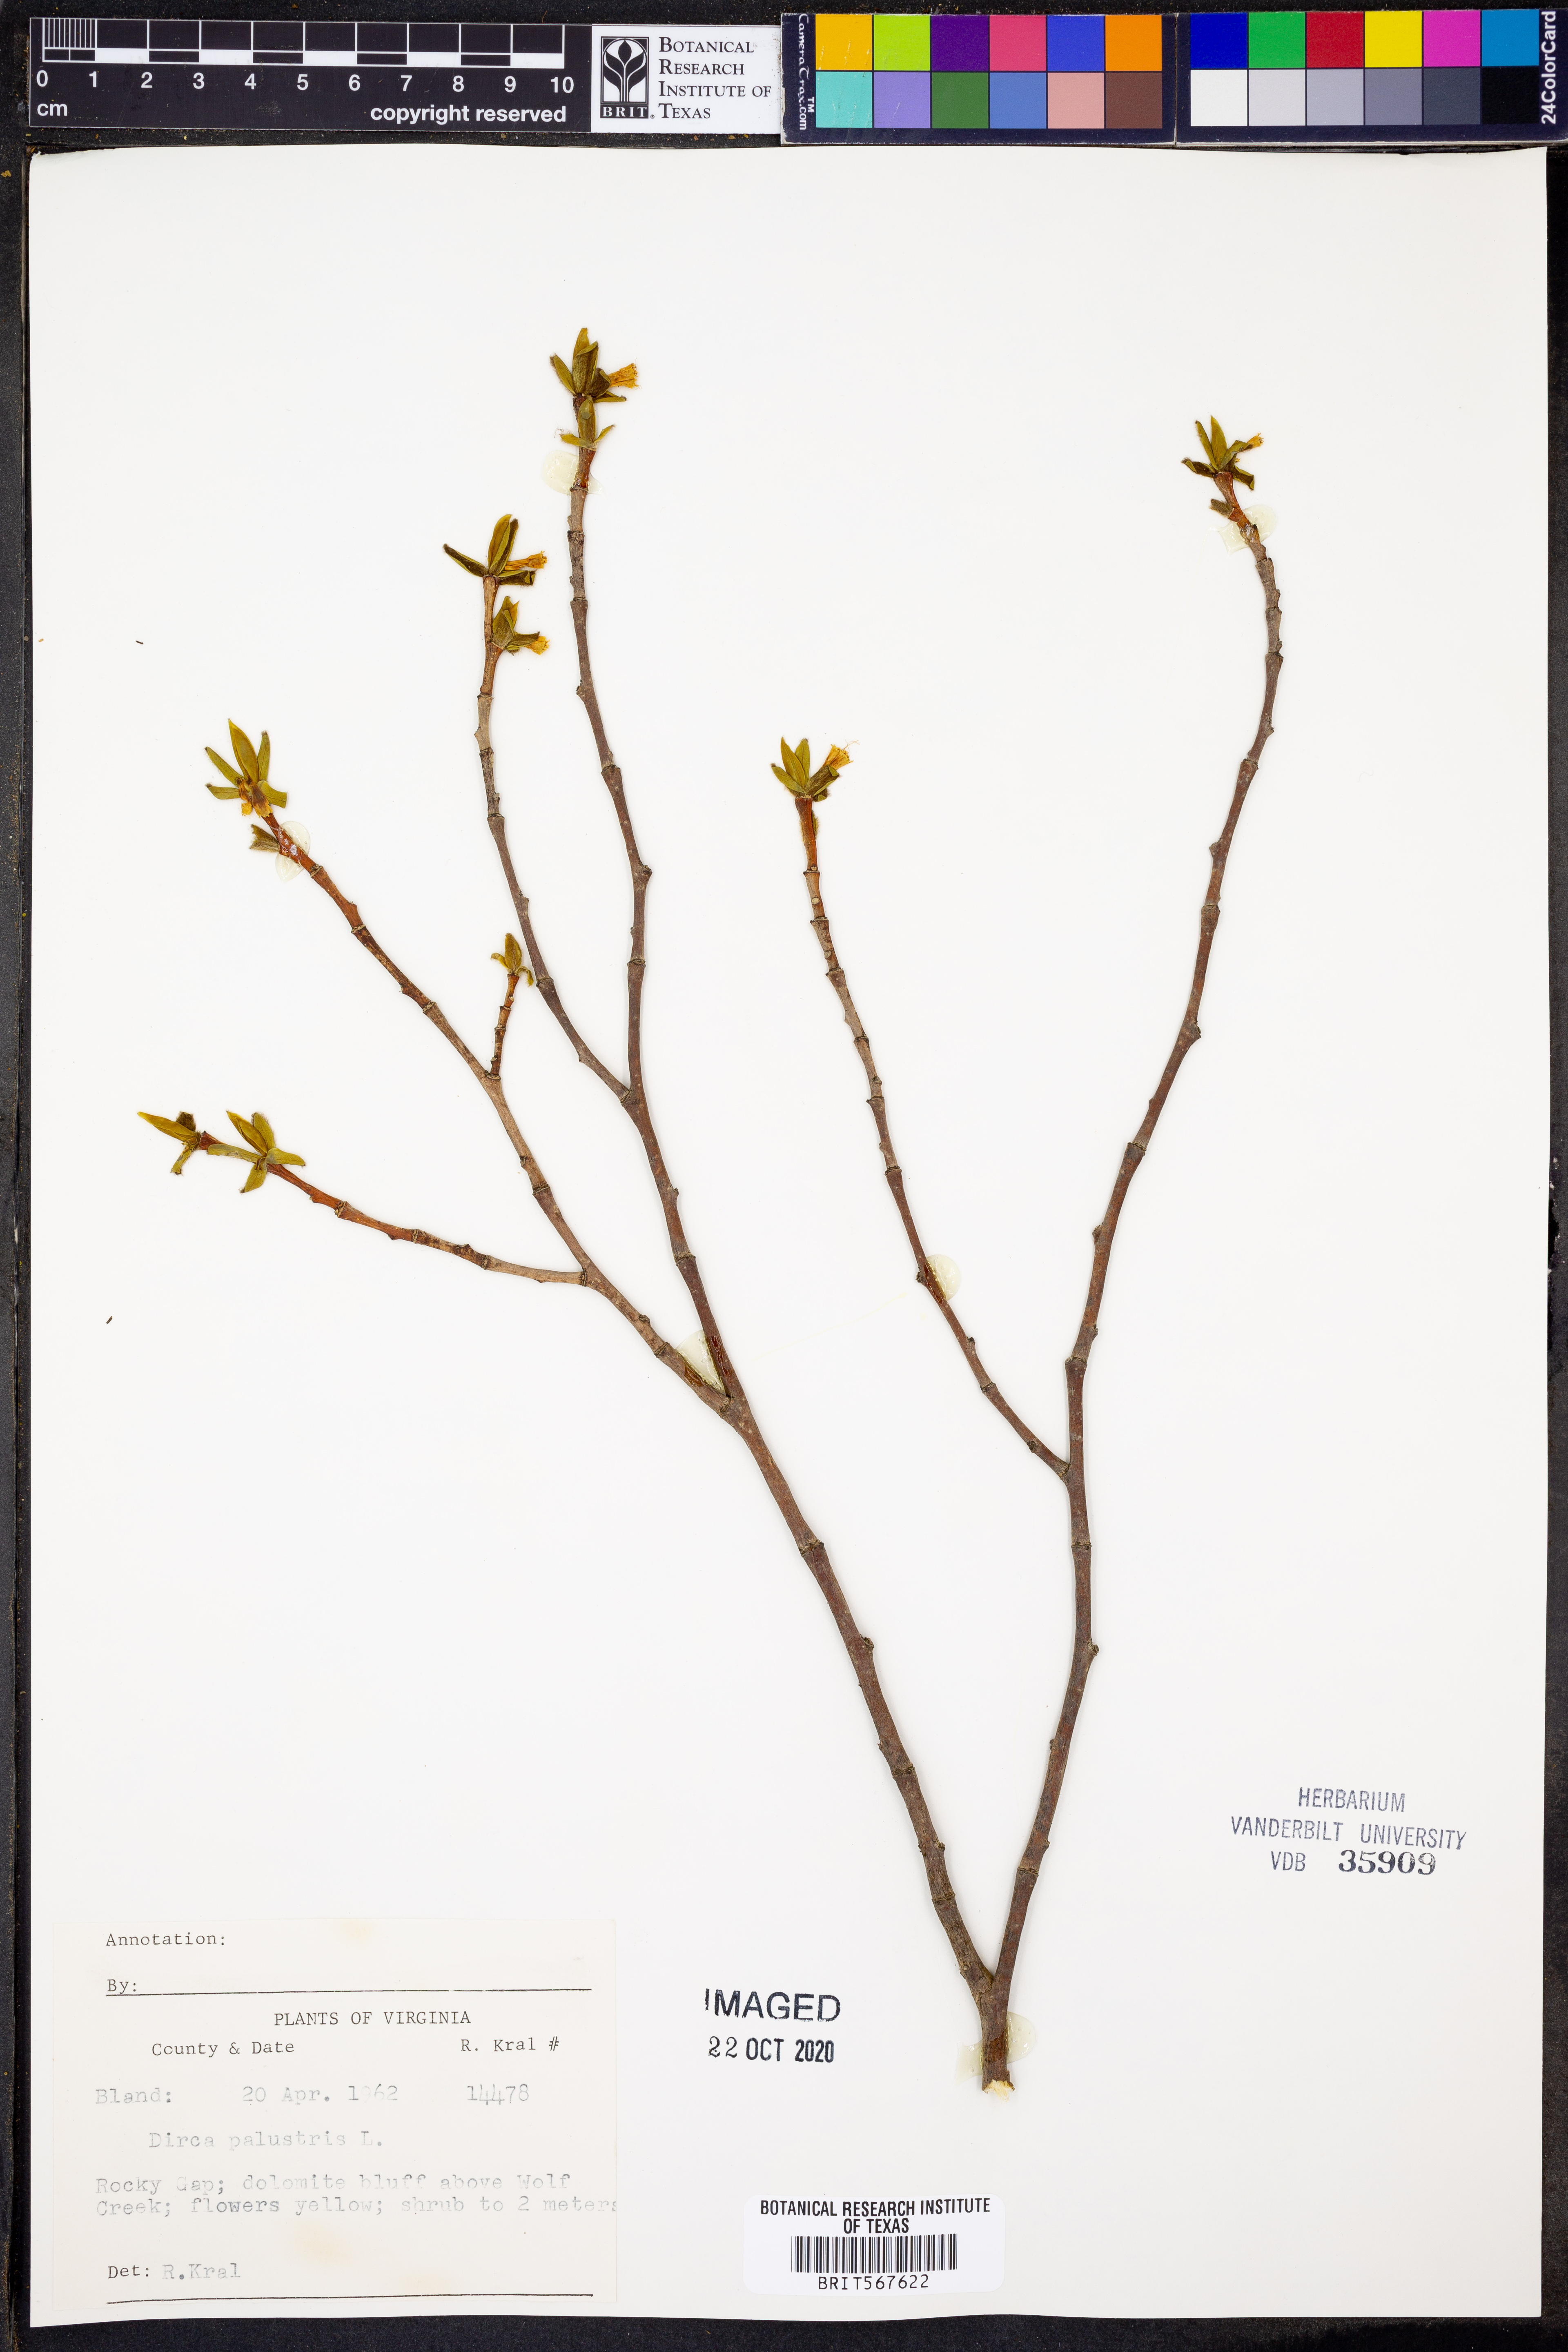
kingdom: Plantae
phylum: Tracheophyta
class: Magnoliopsida
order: Malvales
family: Thymelaeaceae
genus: Dirca
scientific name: Dirca palustris
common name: Leatherwood
